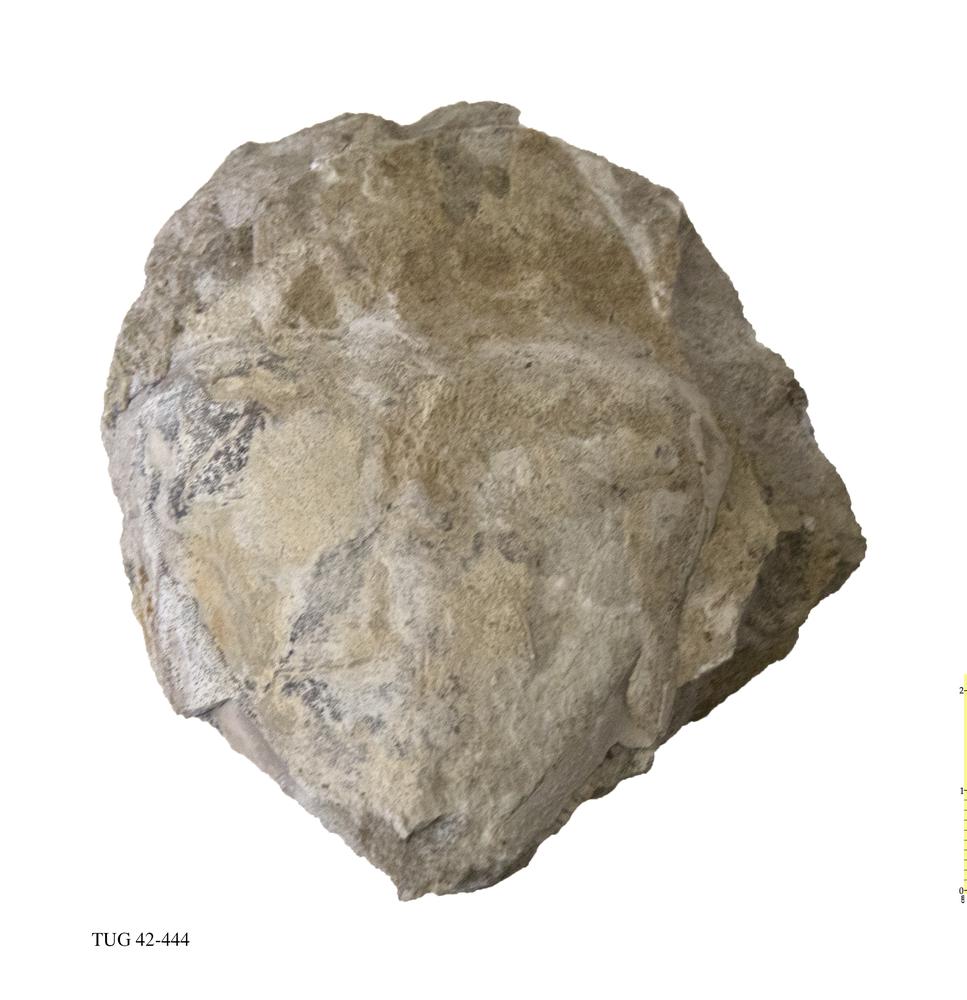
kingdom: Animalia
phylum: Arthropoda
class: Trilobita
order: Asaphida
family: Asaphidae
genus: Asaphus
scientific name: Asaphus
